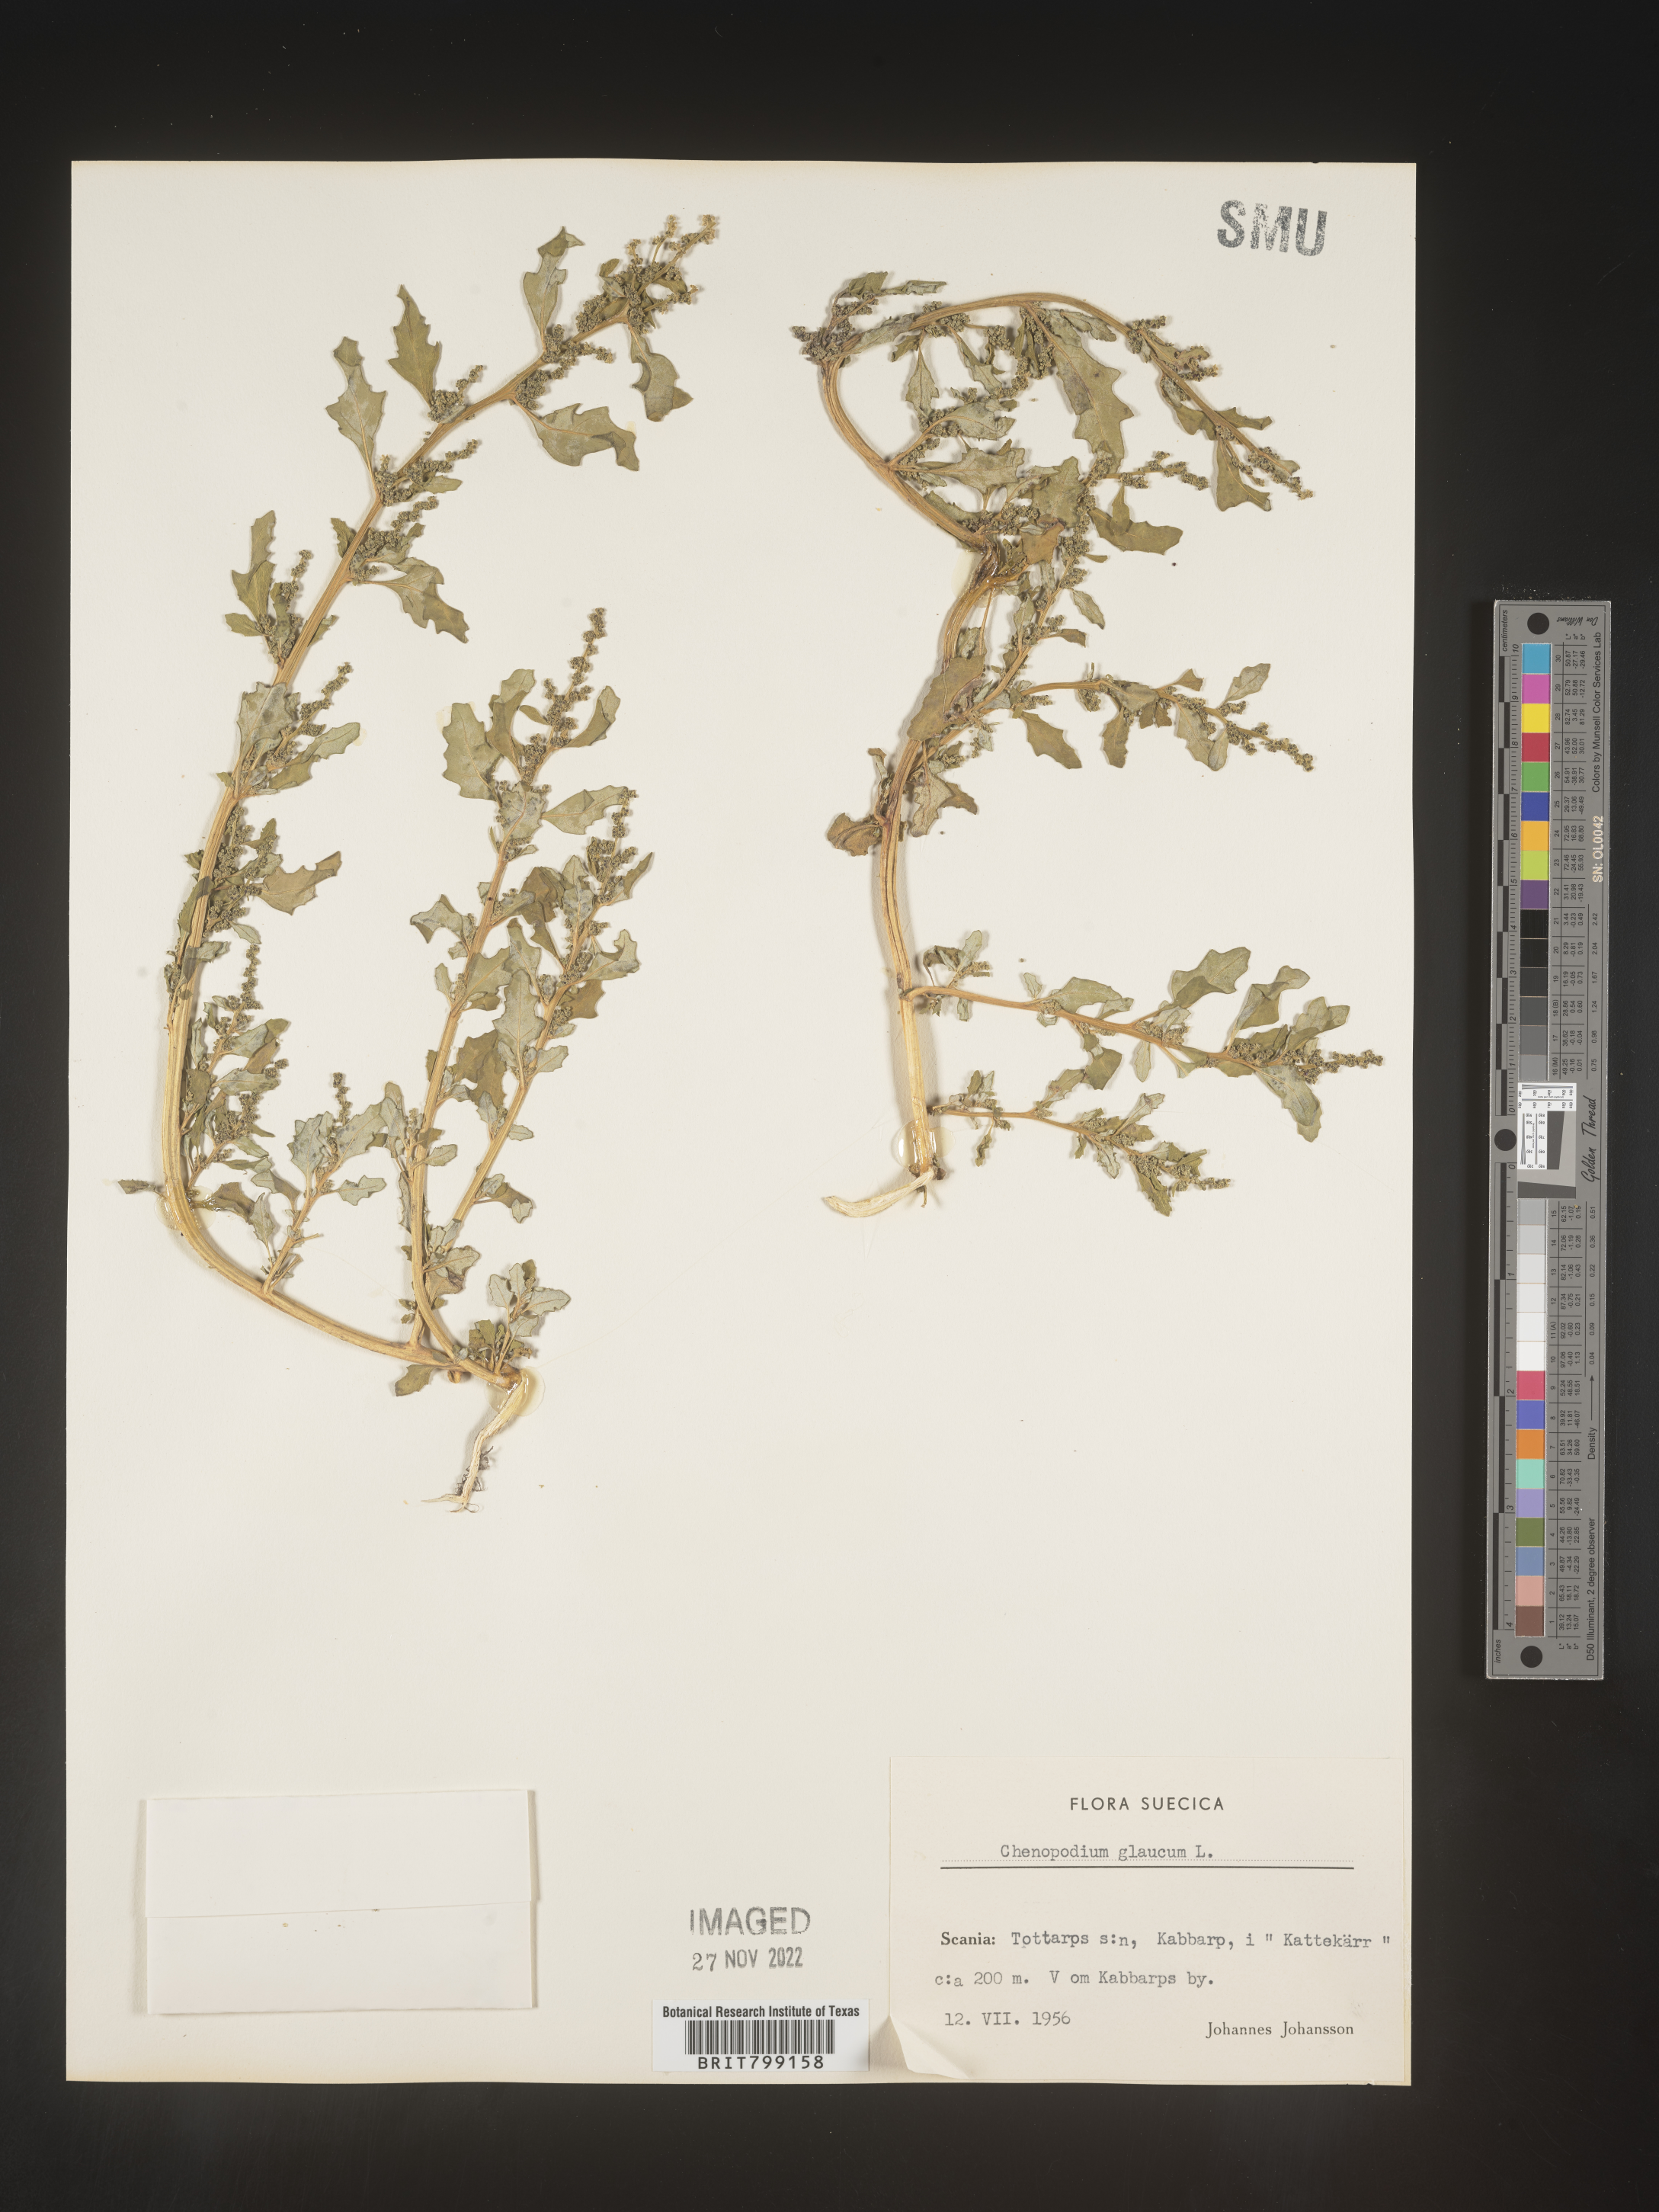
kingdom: Plantae
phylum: Tracheophyta
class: Magnoliopsida
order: Caryophyllales
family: Amaranthaceae
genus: Oxybasis
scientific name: Oxybasis glauca
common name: Glaucous goosefoot
